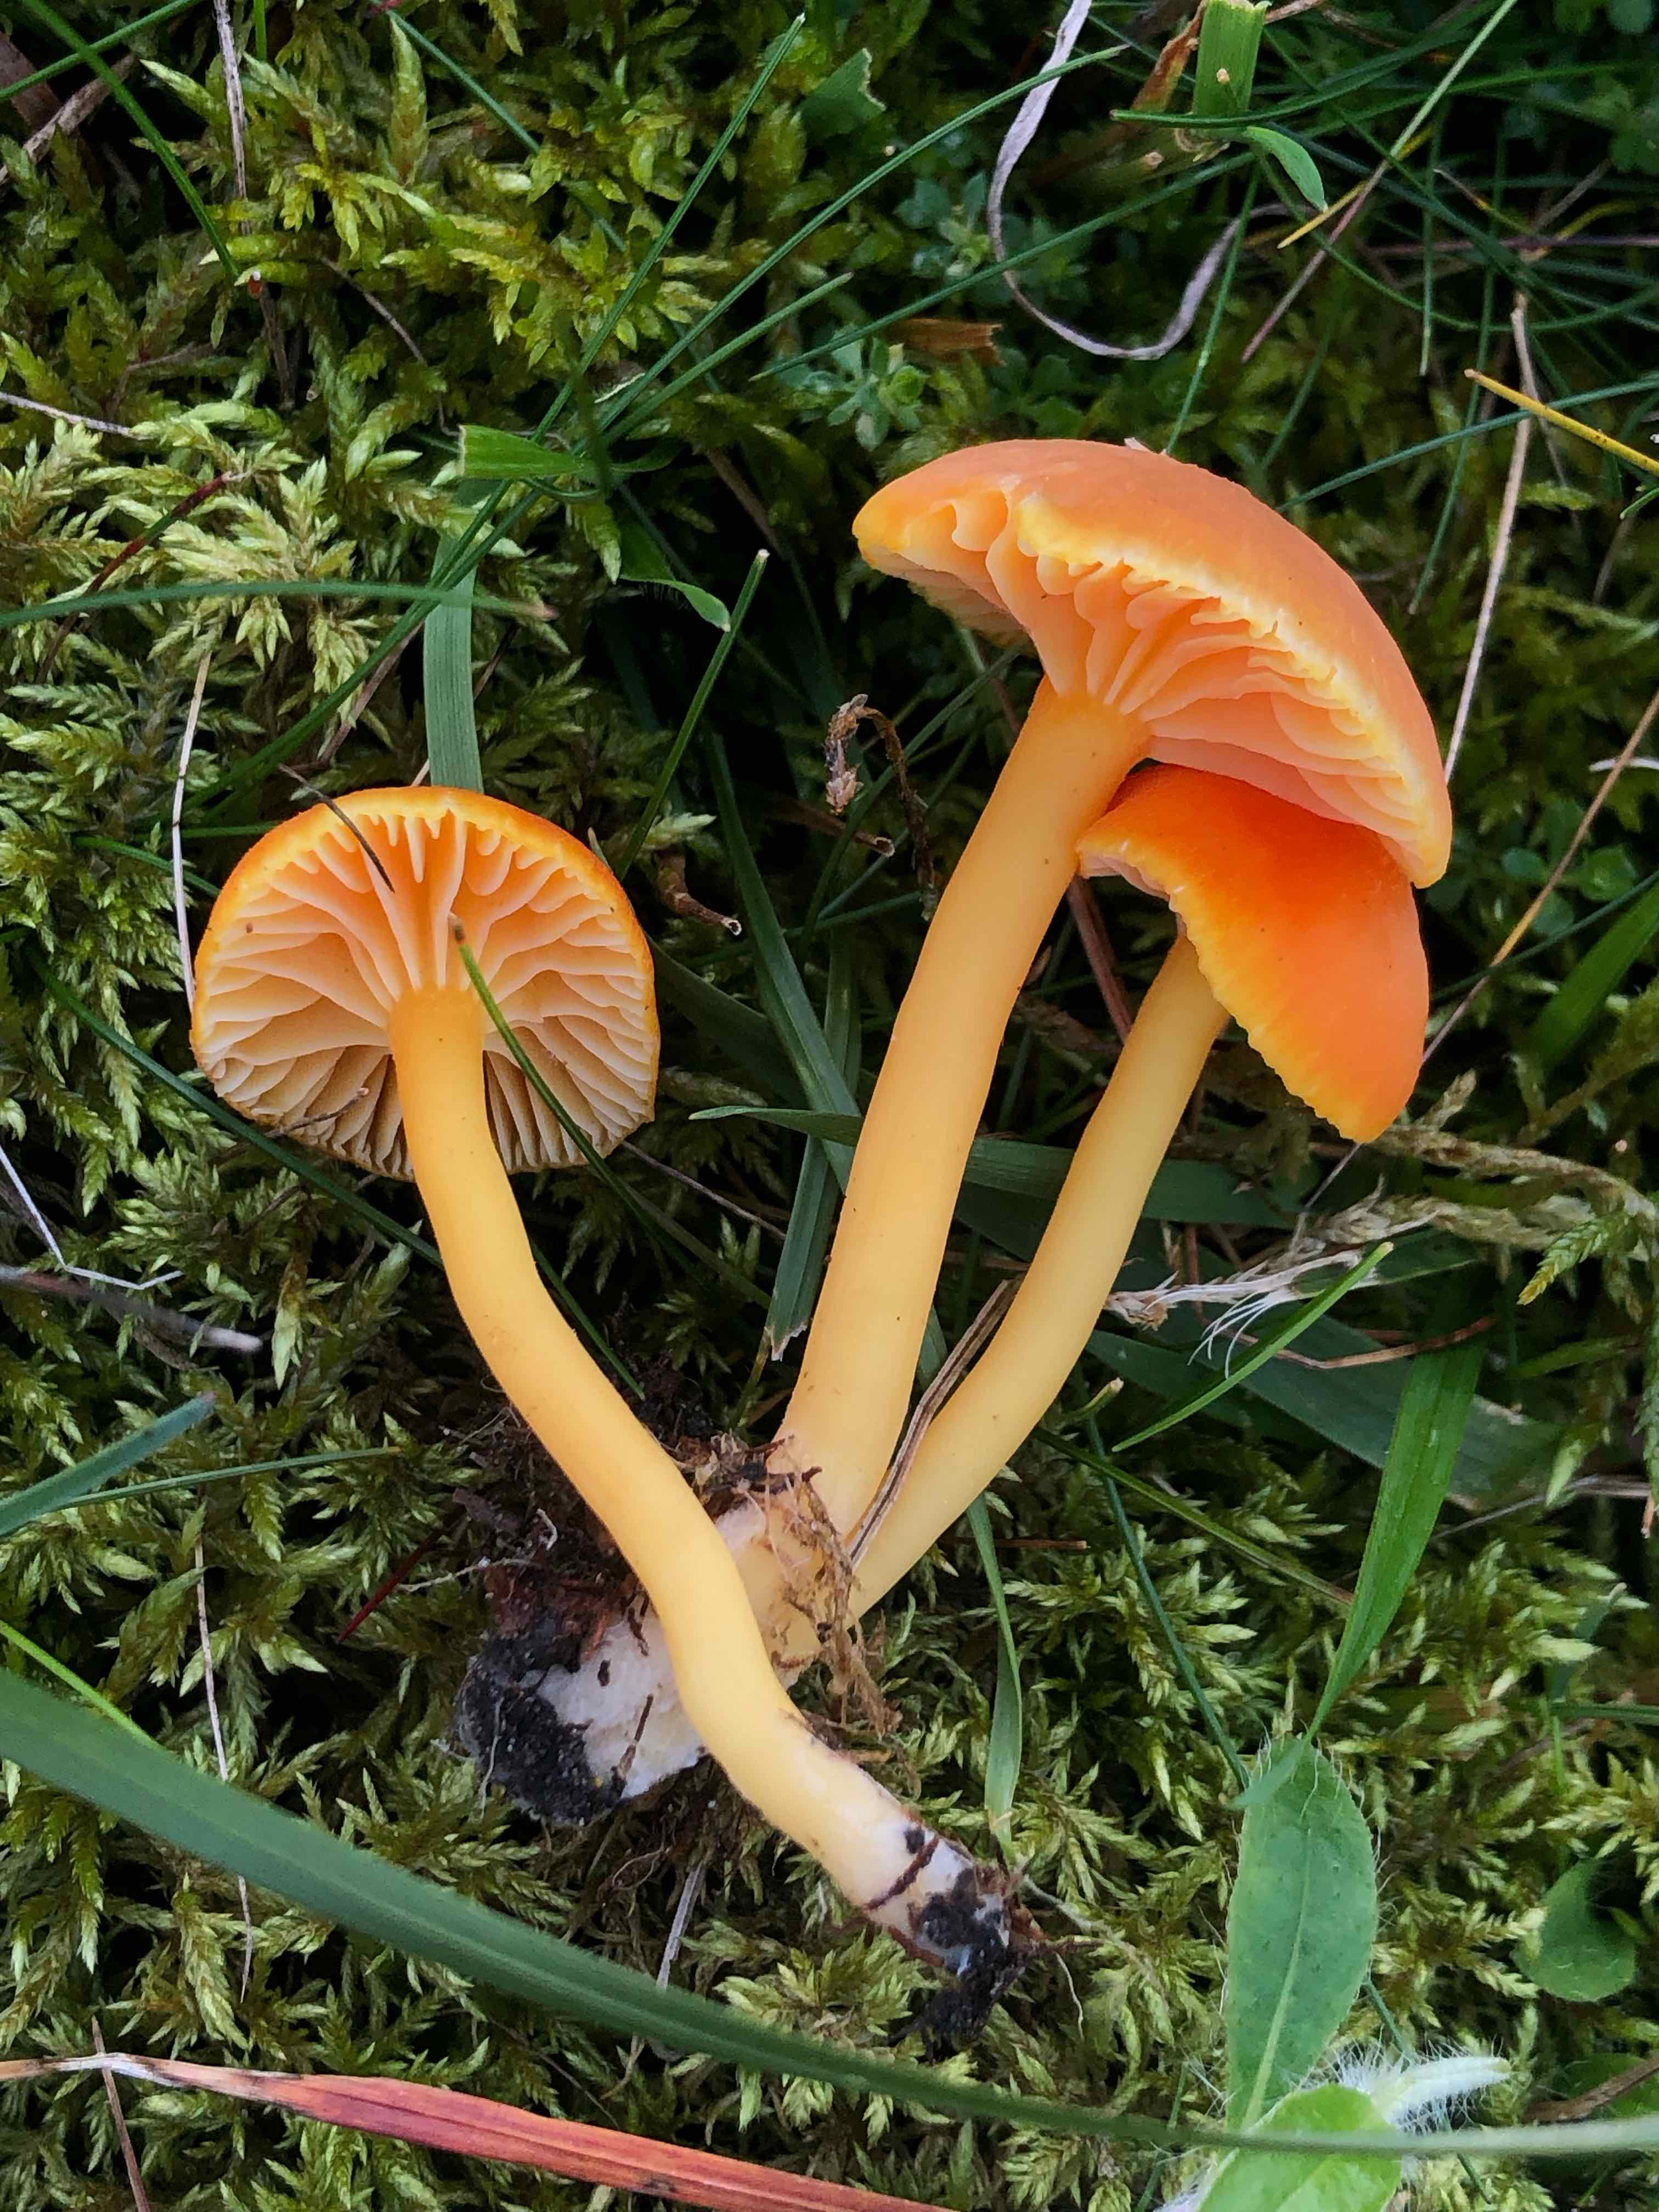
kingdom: Fungi
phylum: Basidiomycota
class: Agaricomycetes
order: Agaricales
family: Hygrophoraceae
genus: Hygrocybe
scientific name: Hygrocybe reidii
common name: honning-vokshat
